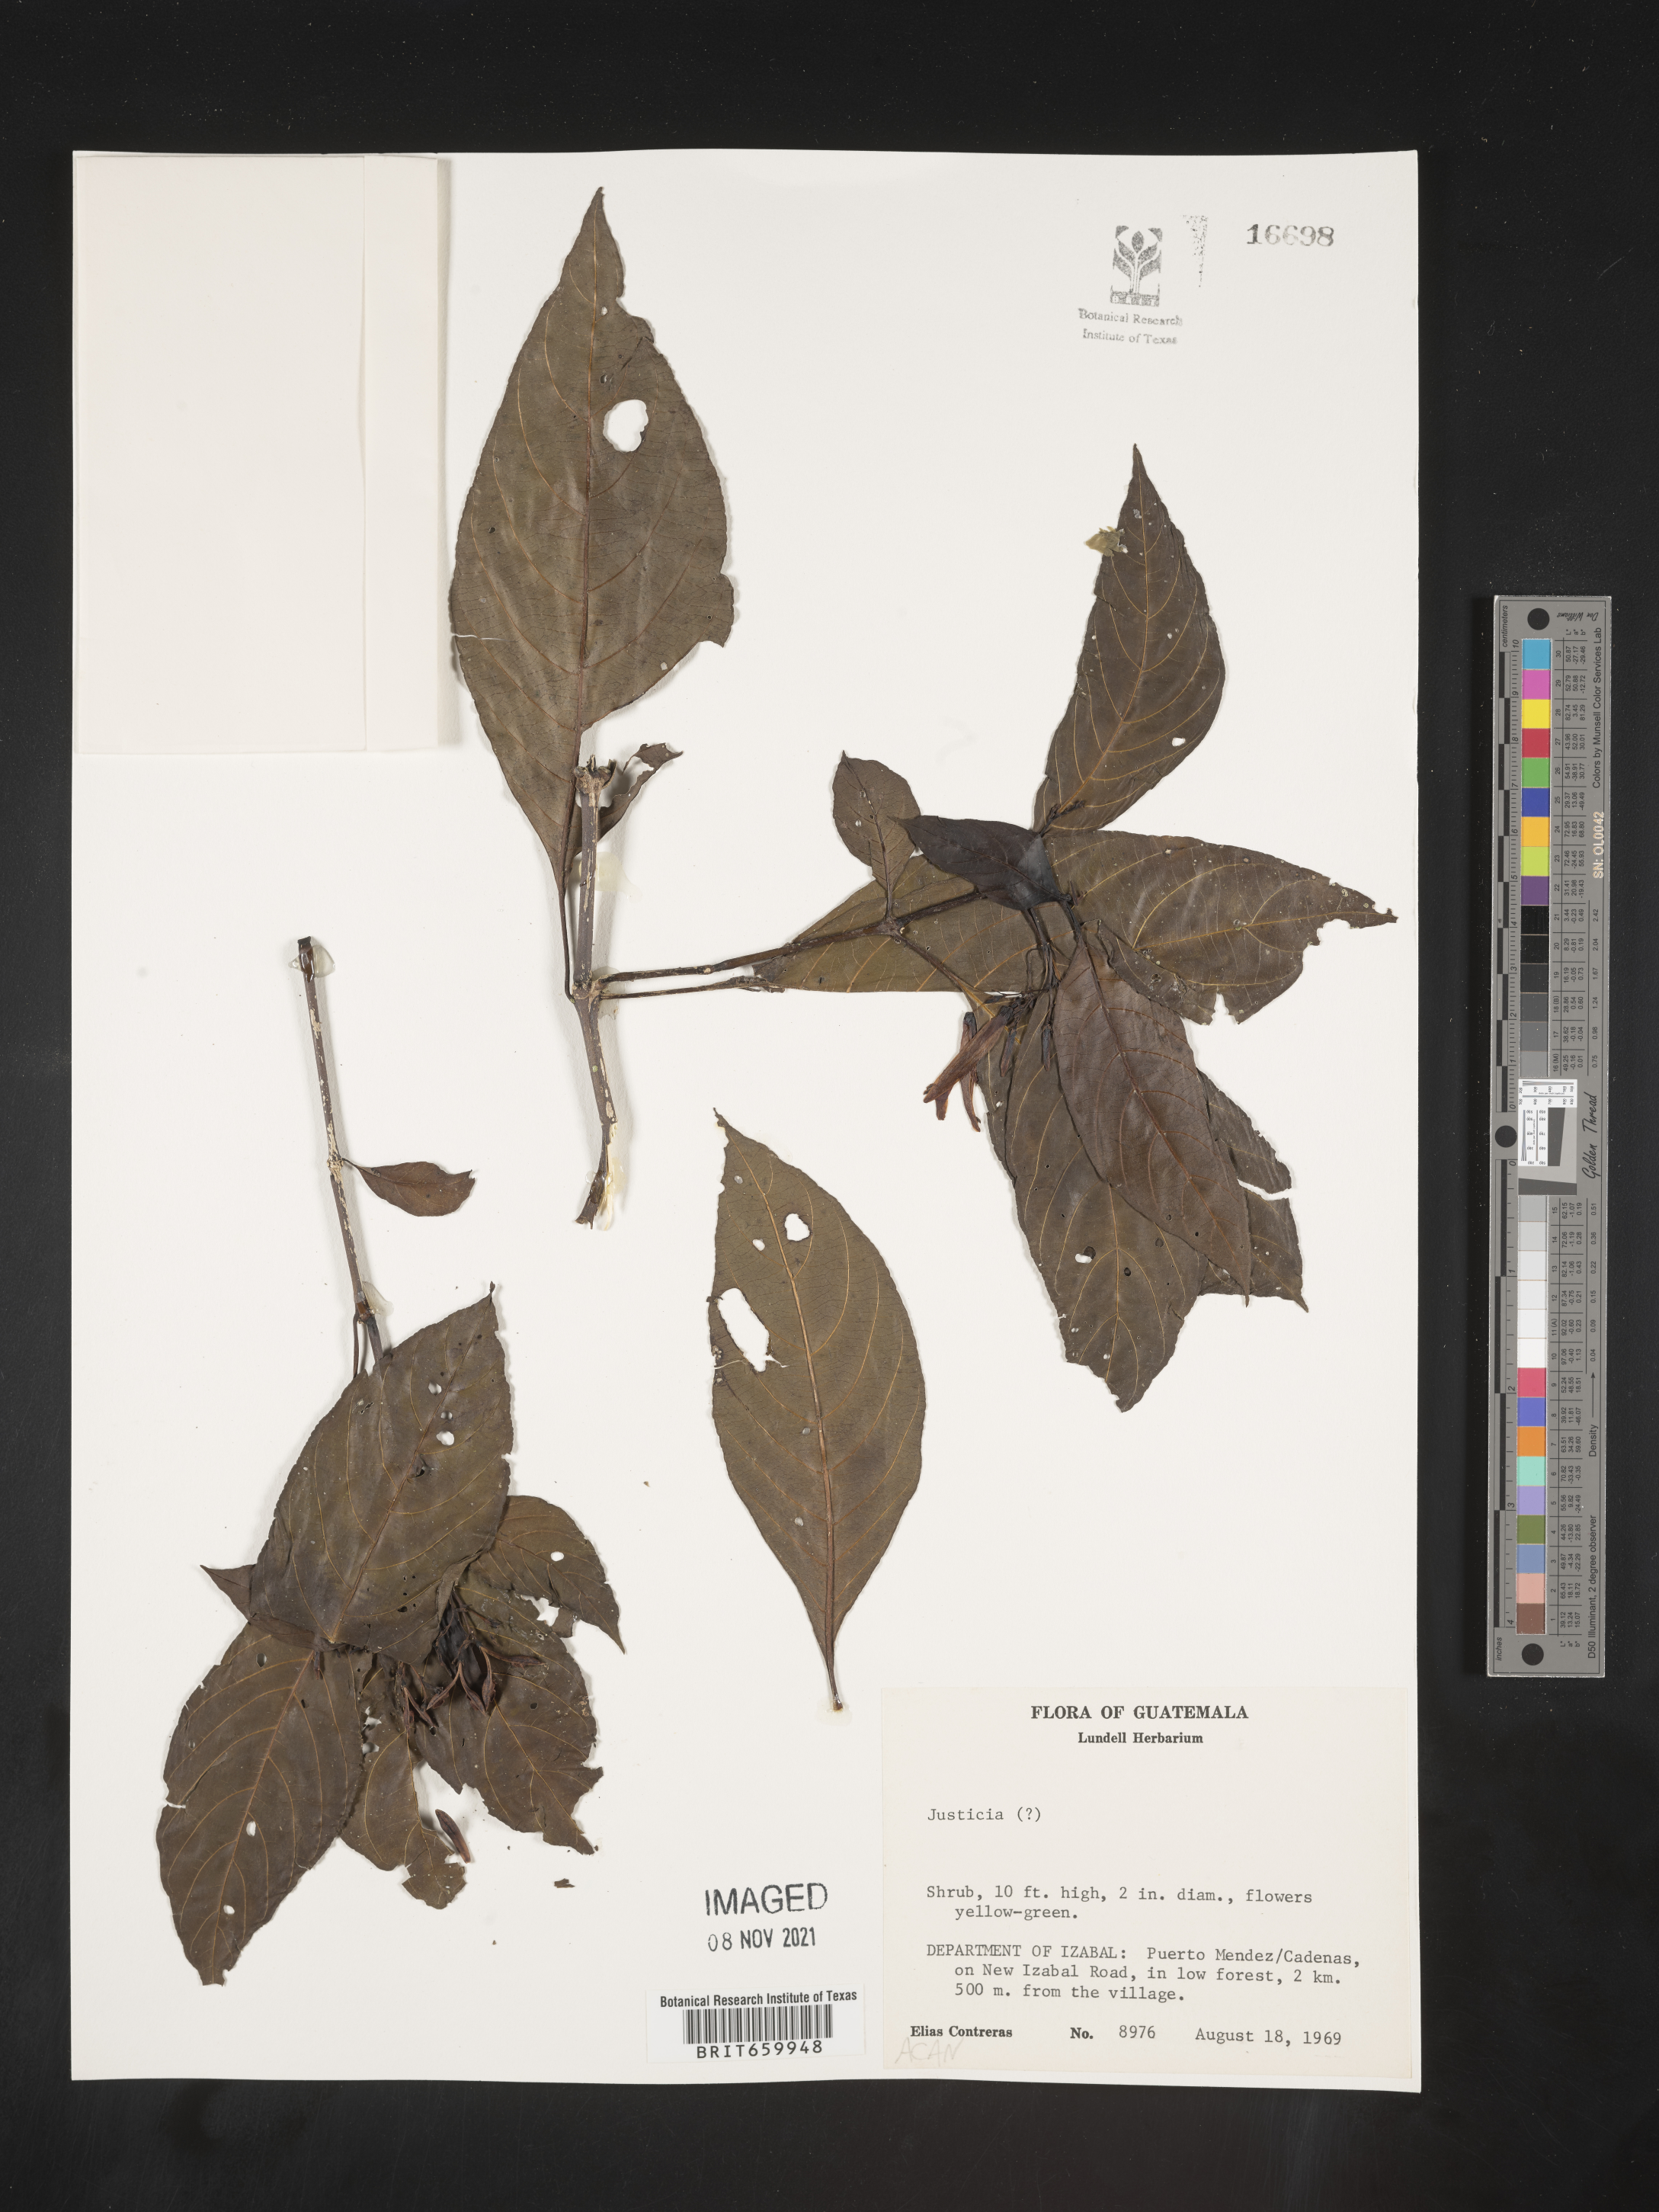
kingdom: Plantae
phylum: Tracheophyta
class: Magnoliopsida
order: Lamiales
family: Acanthaceae
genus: Justicia
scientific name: Justicia
